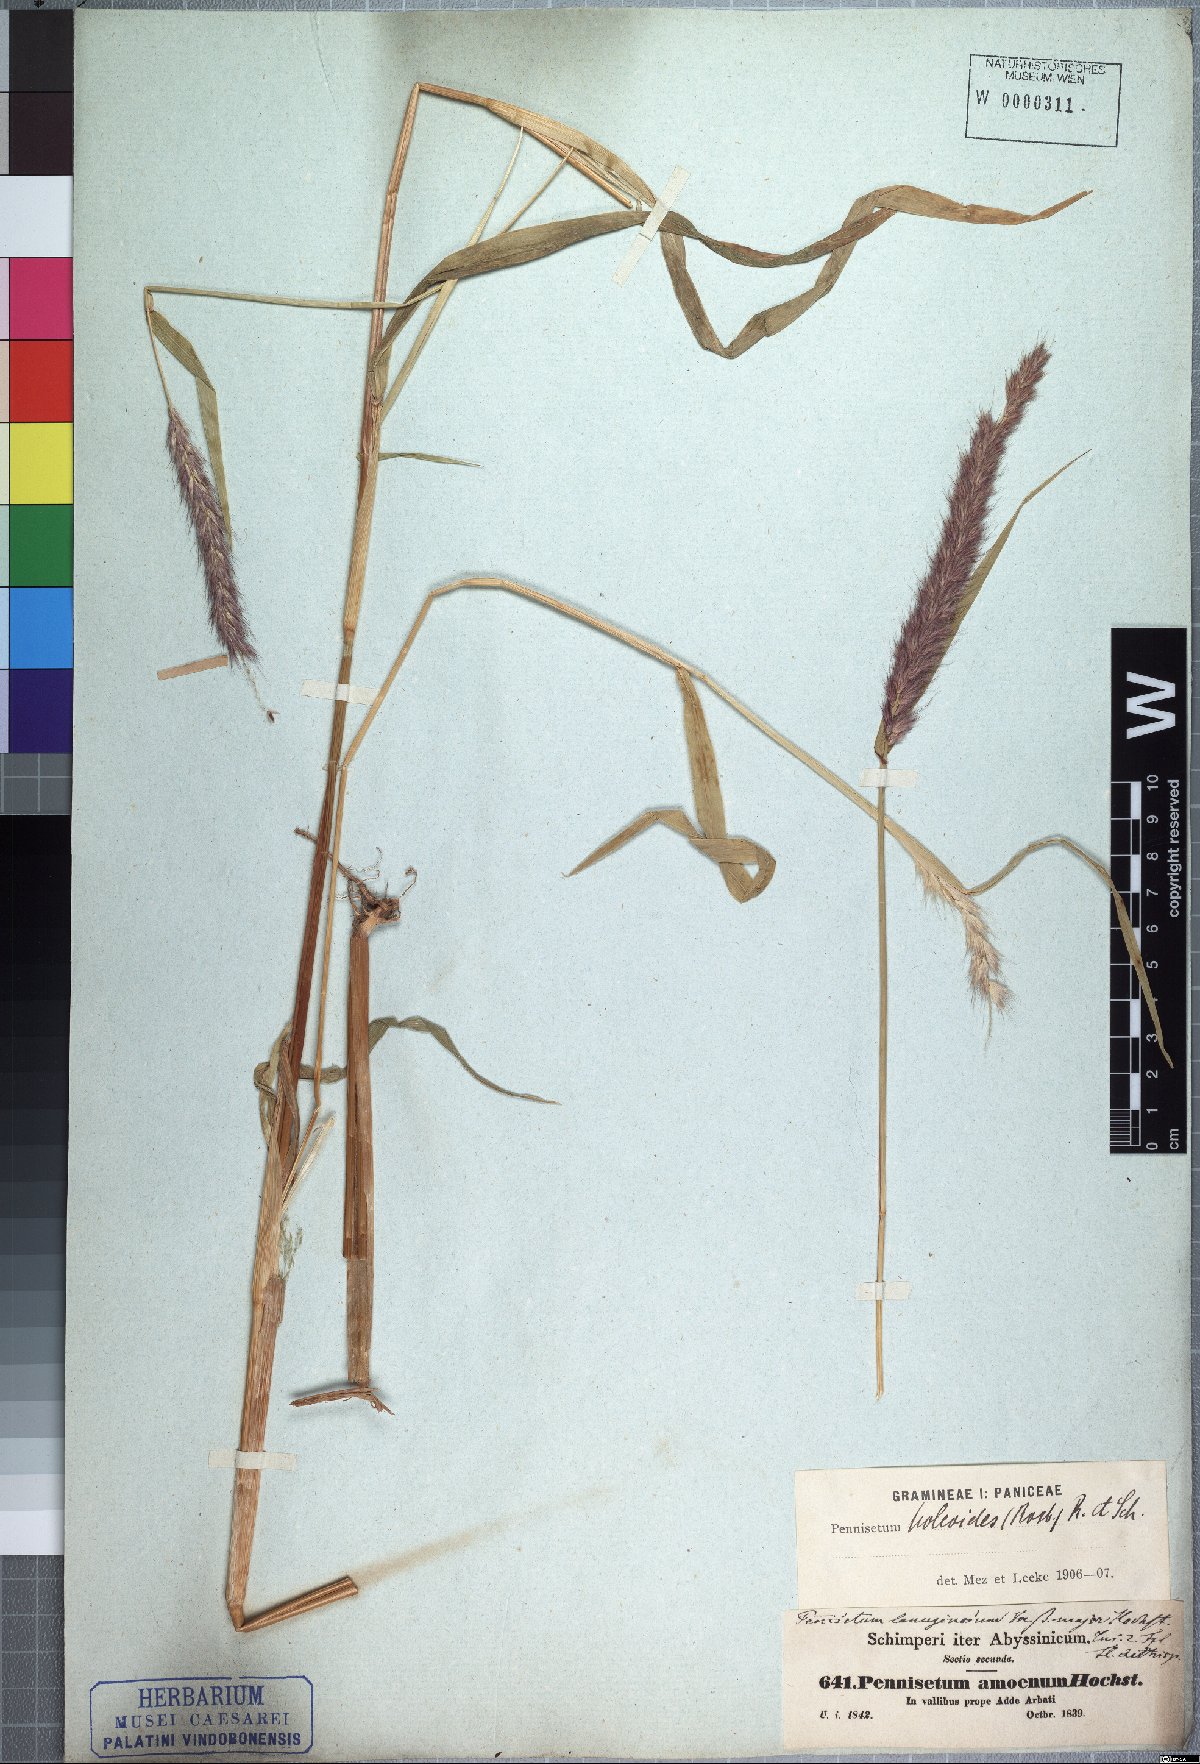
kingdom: Plantae
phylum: Tracheophyta
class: Liliopsida
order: Poales
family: Poaceae
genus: Cenchrus
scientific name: Cenchrus pedicellatus
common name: Hairy fountain grass
